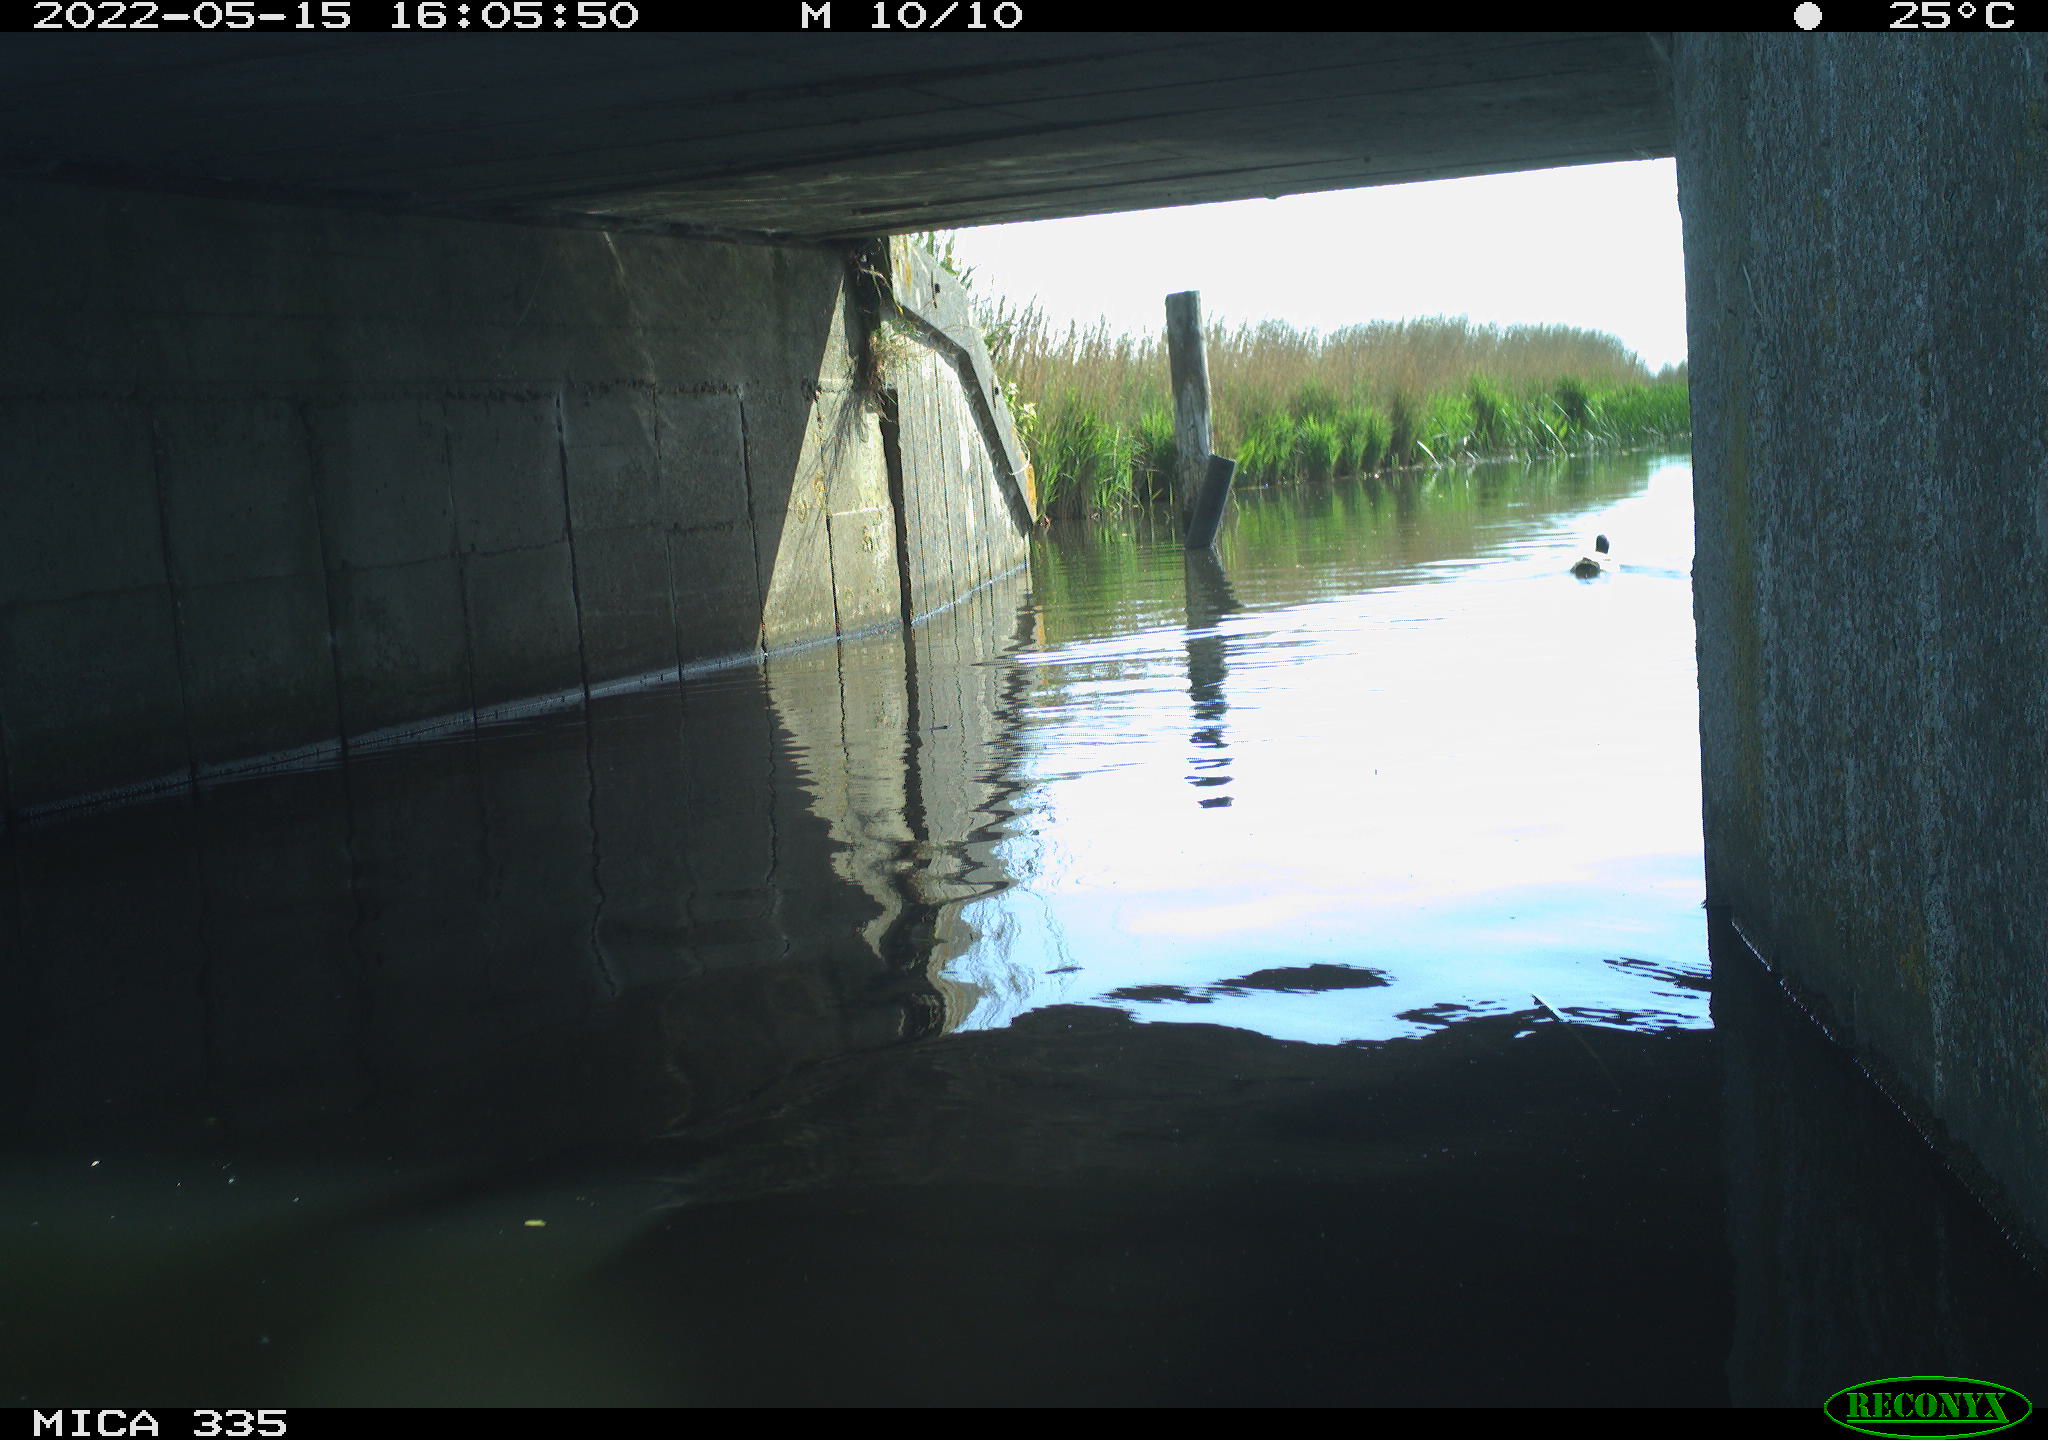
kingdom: Animalia
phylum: Chordata
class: Aves
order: Anseriformes
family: Anatidae
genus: Anas
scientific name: Anas platyrhynchos
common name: Mallard
